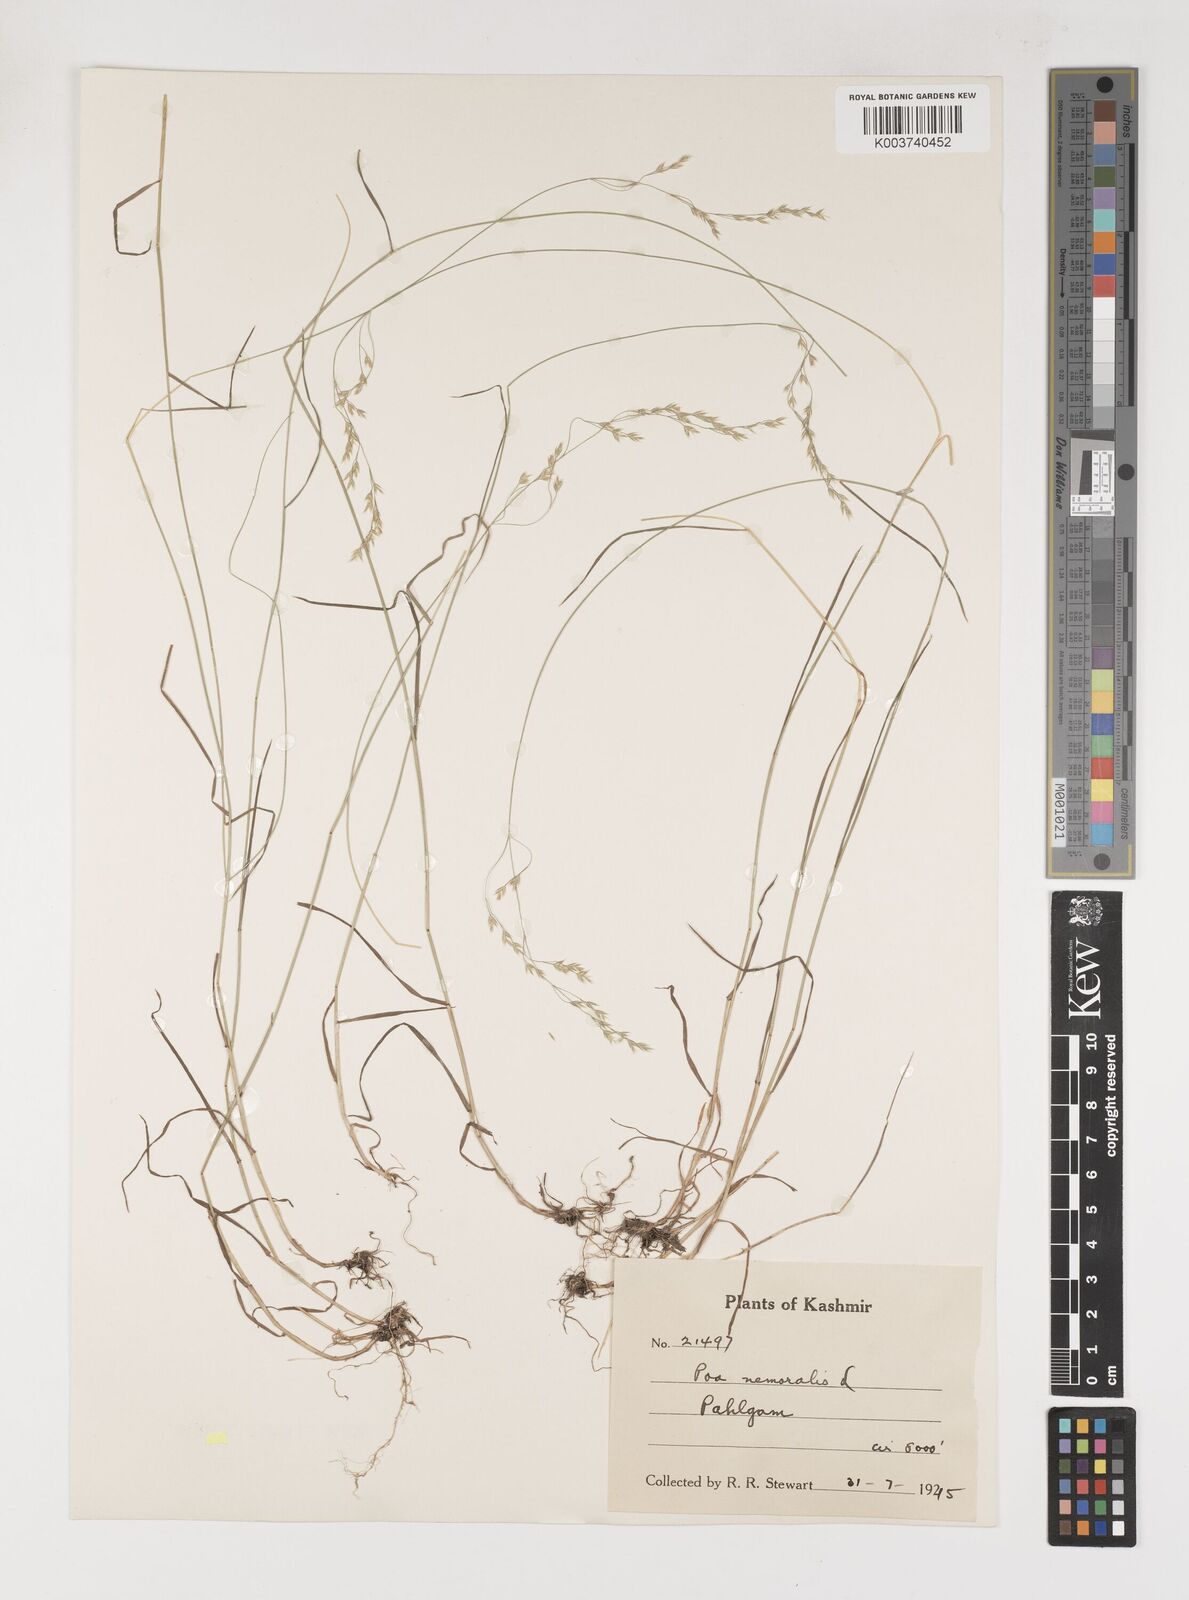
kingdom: Plantae
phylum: Tracheophyta
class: Liliopsida
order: Poales
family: Poaceae
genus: Poa
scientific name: Poa nemoralis
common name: Wood bluegrass
